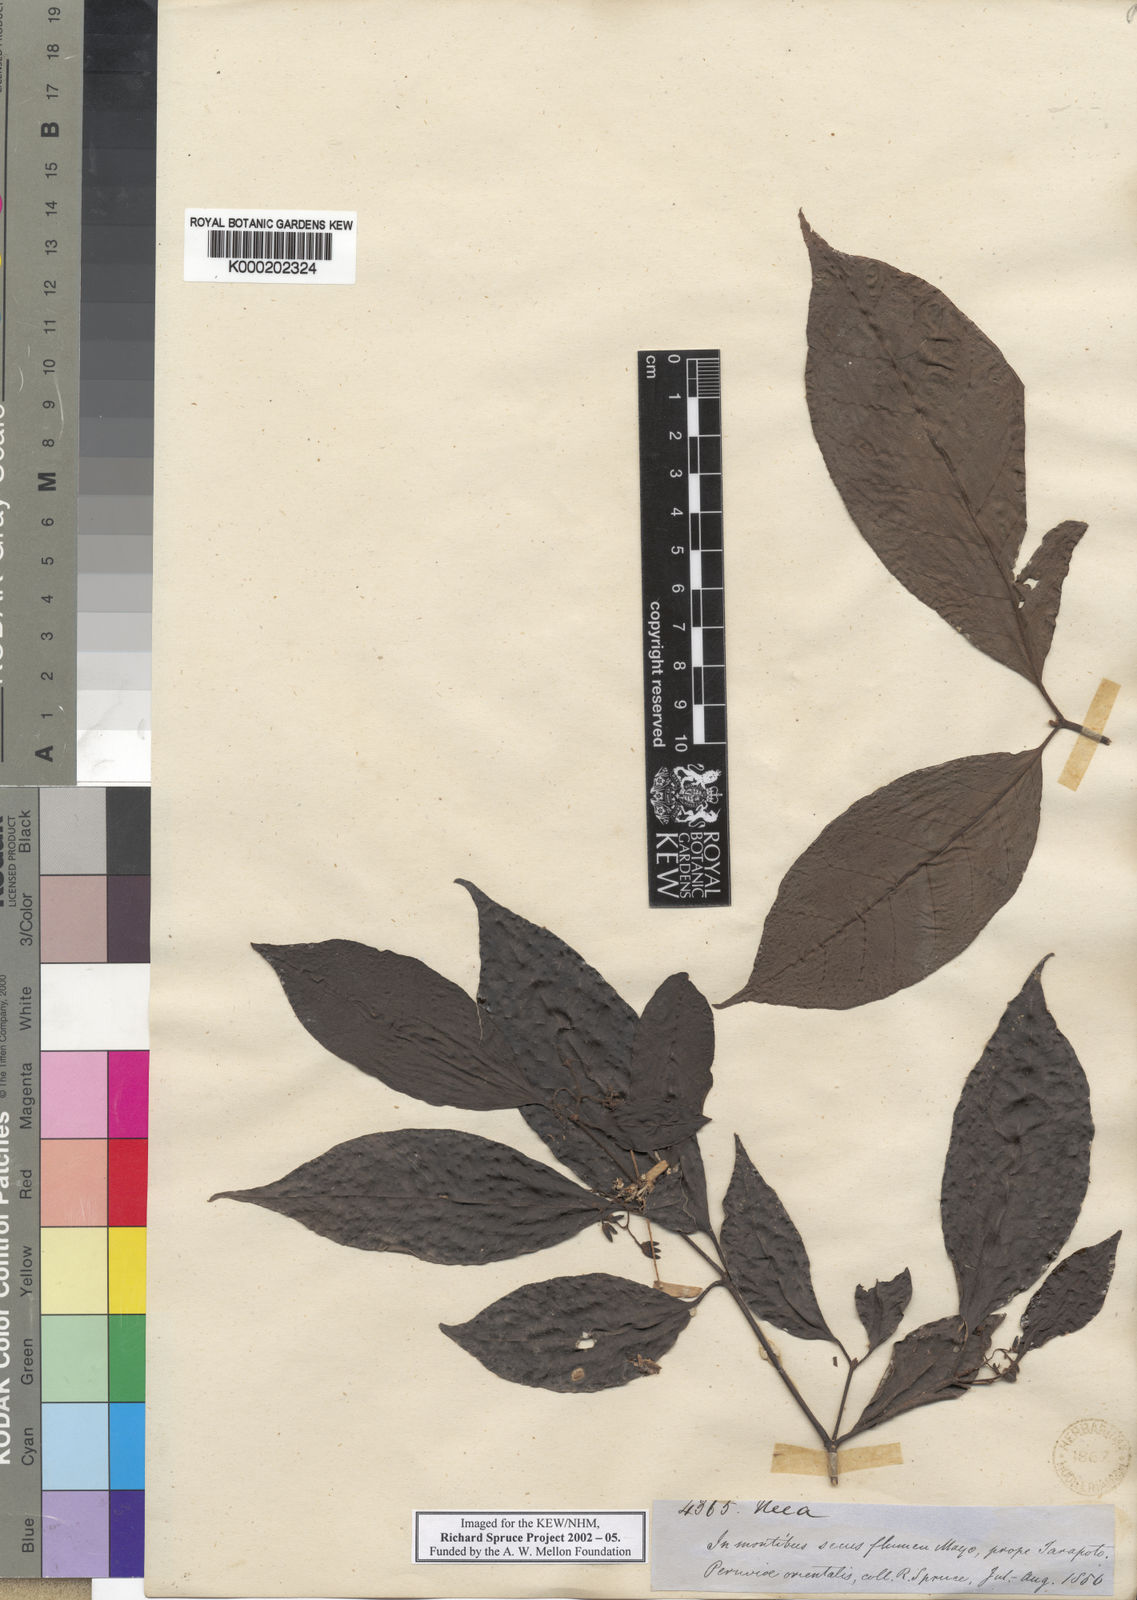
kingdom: Plantae
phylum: Tracheophyta
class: Magnoliopsida
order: Caryophyllales
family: Nyctaginaceae
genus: Neea
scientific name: Neea
